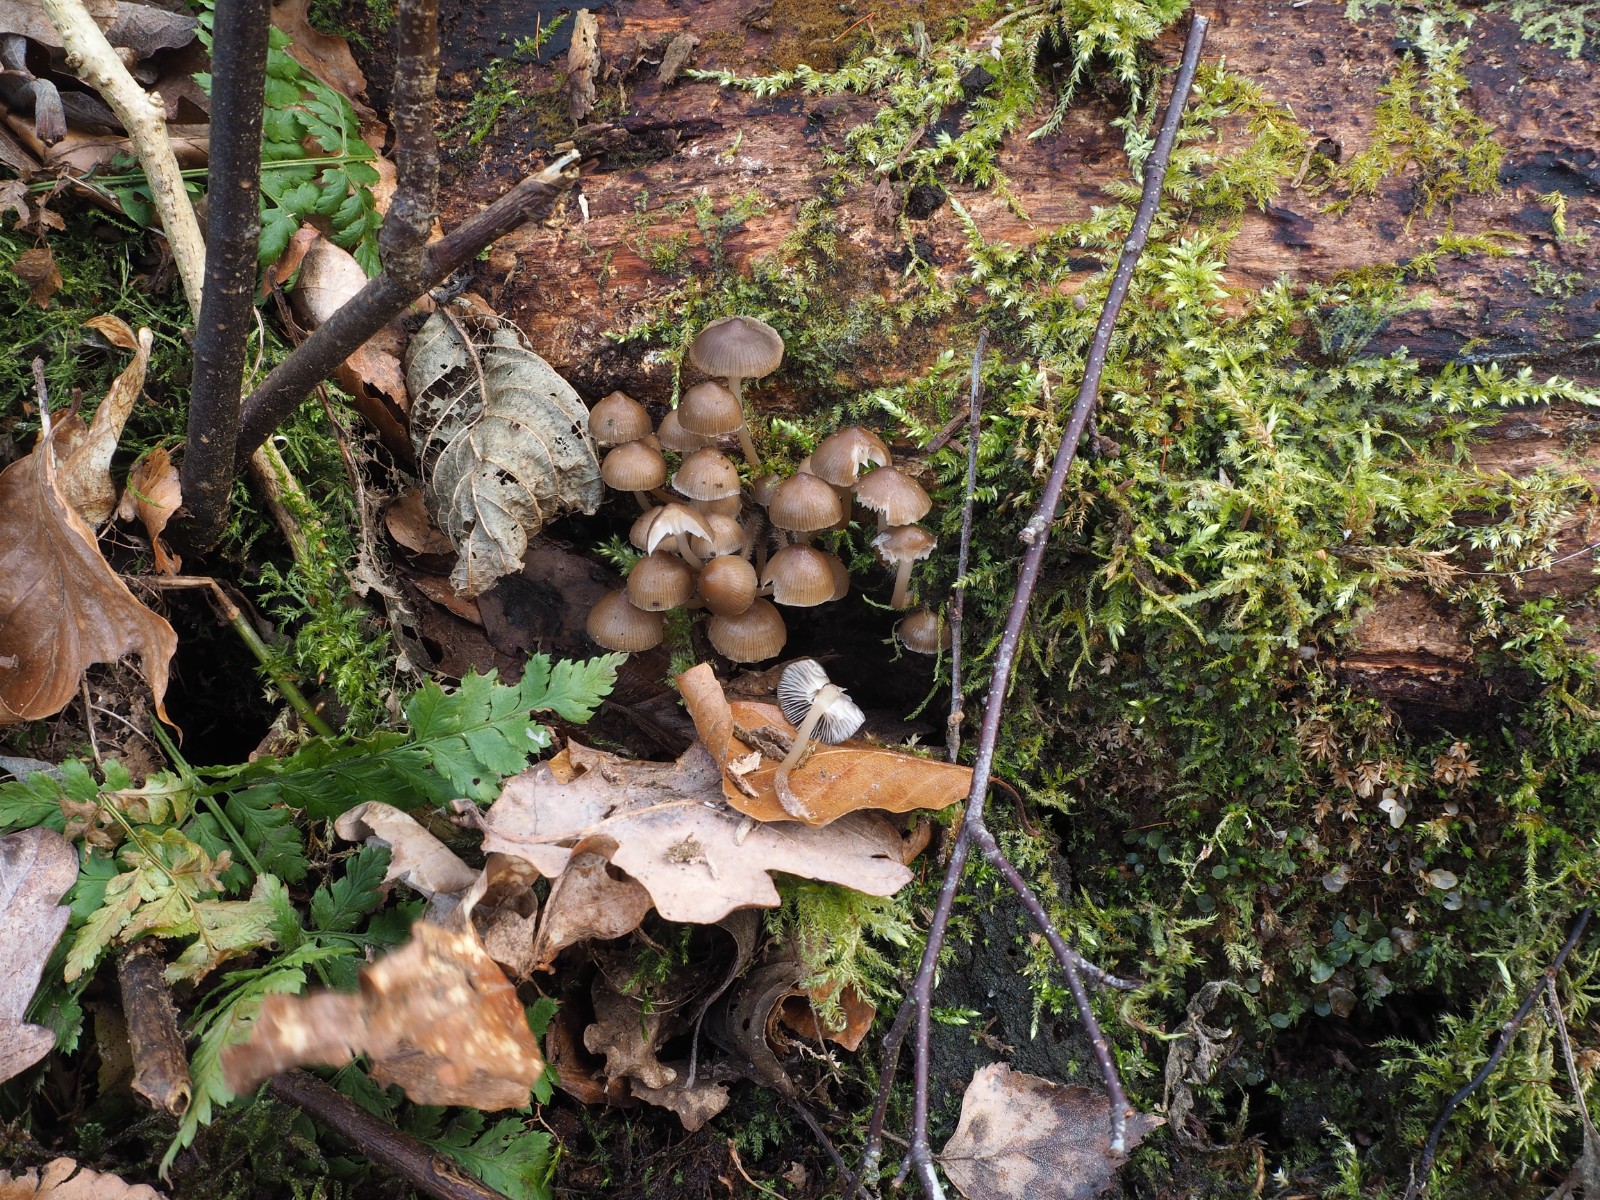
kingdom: Fungi
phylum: Basidiomycota
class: Agaricomycetes
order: Agaricales
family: Mycenaceae
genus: Mycena
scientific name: Mycena tintinnabulum
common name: vinter-huesvamp
